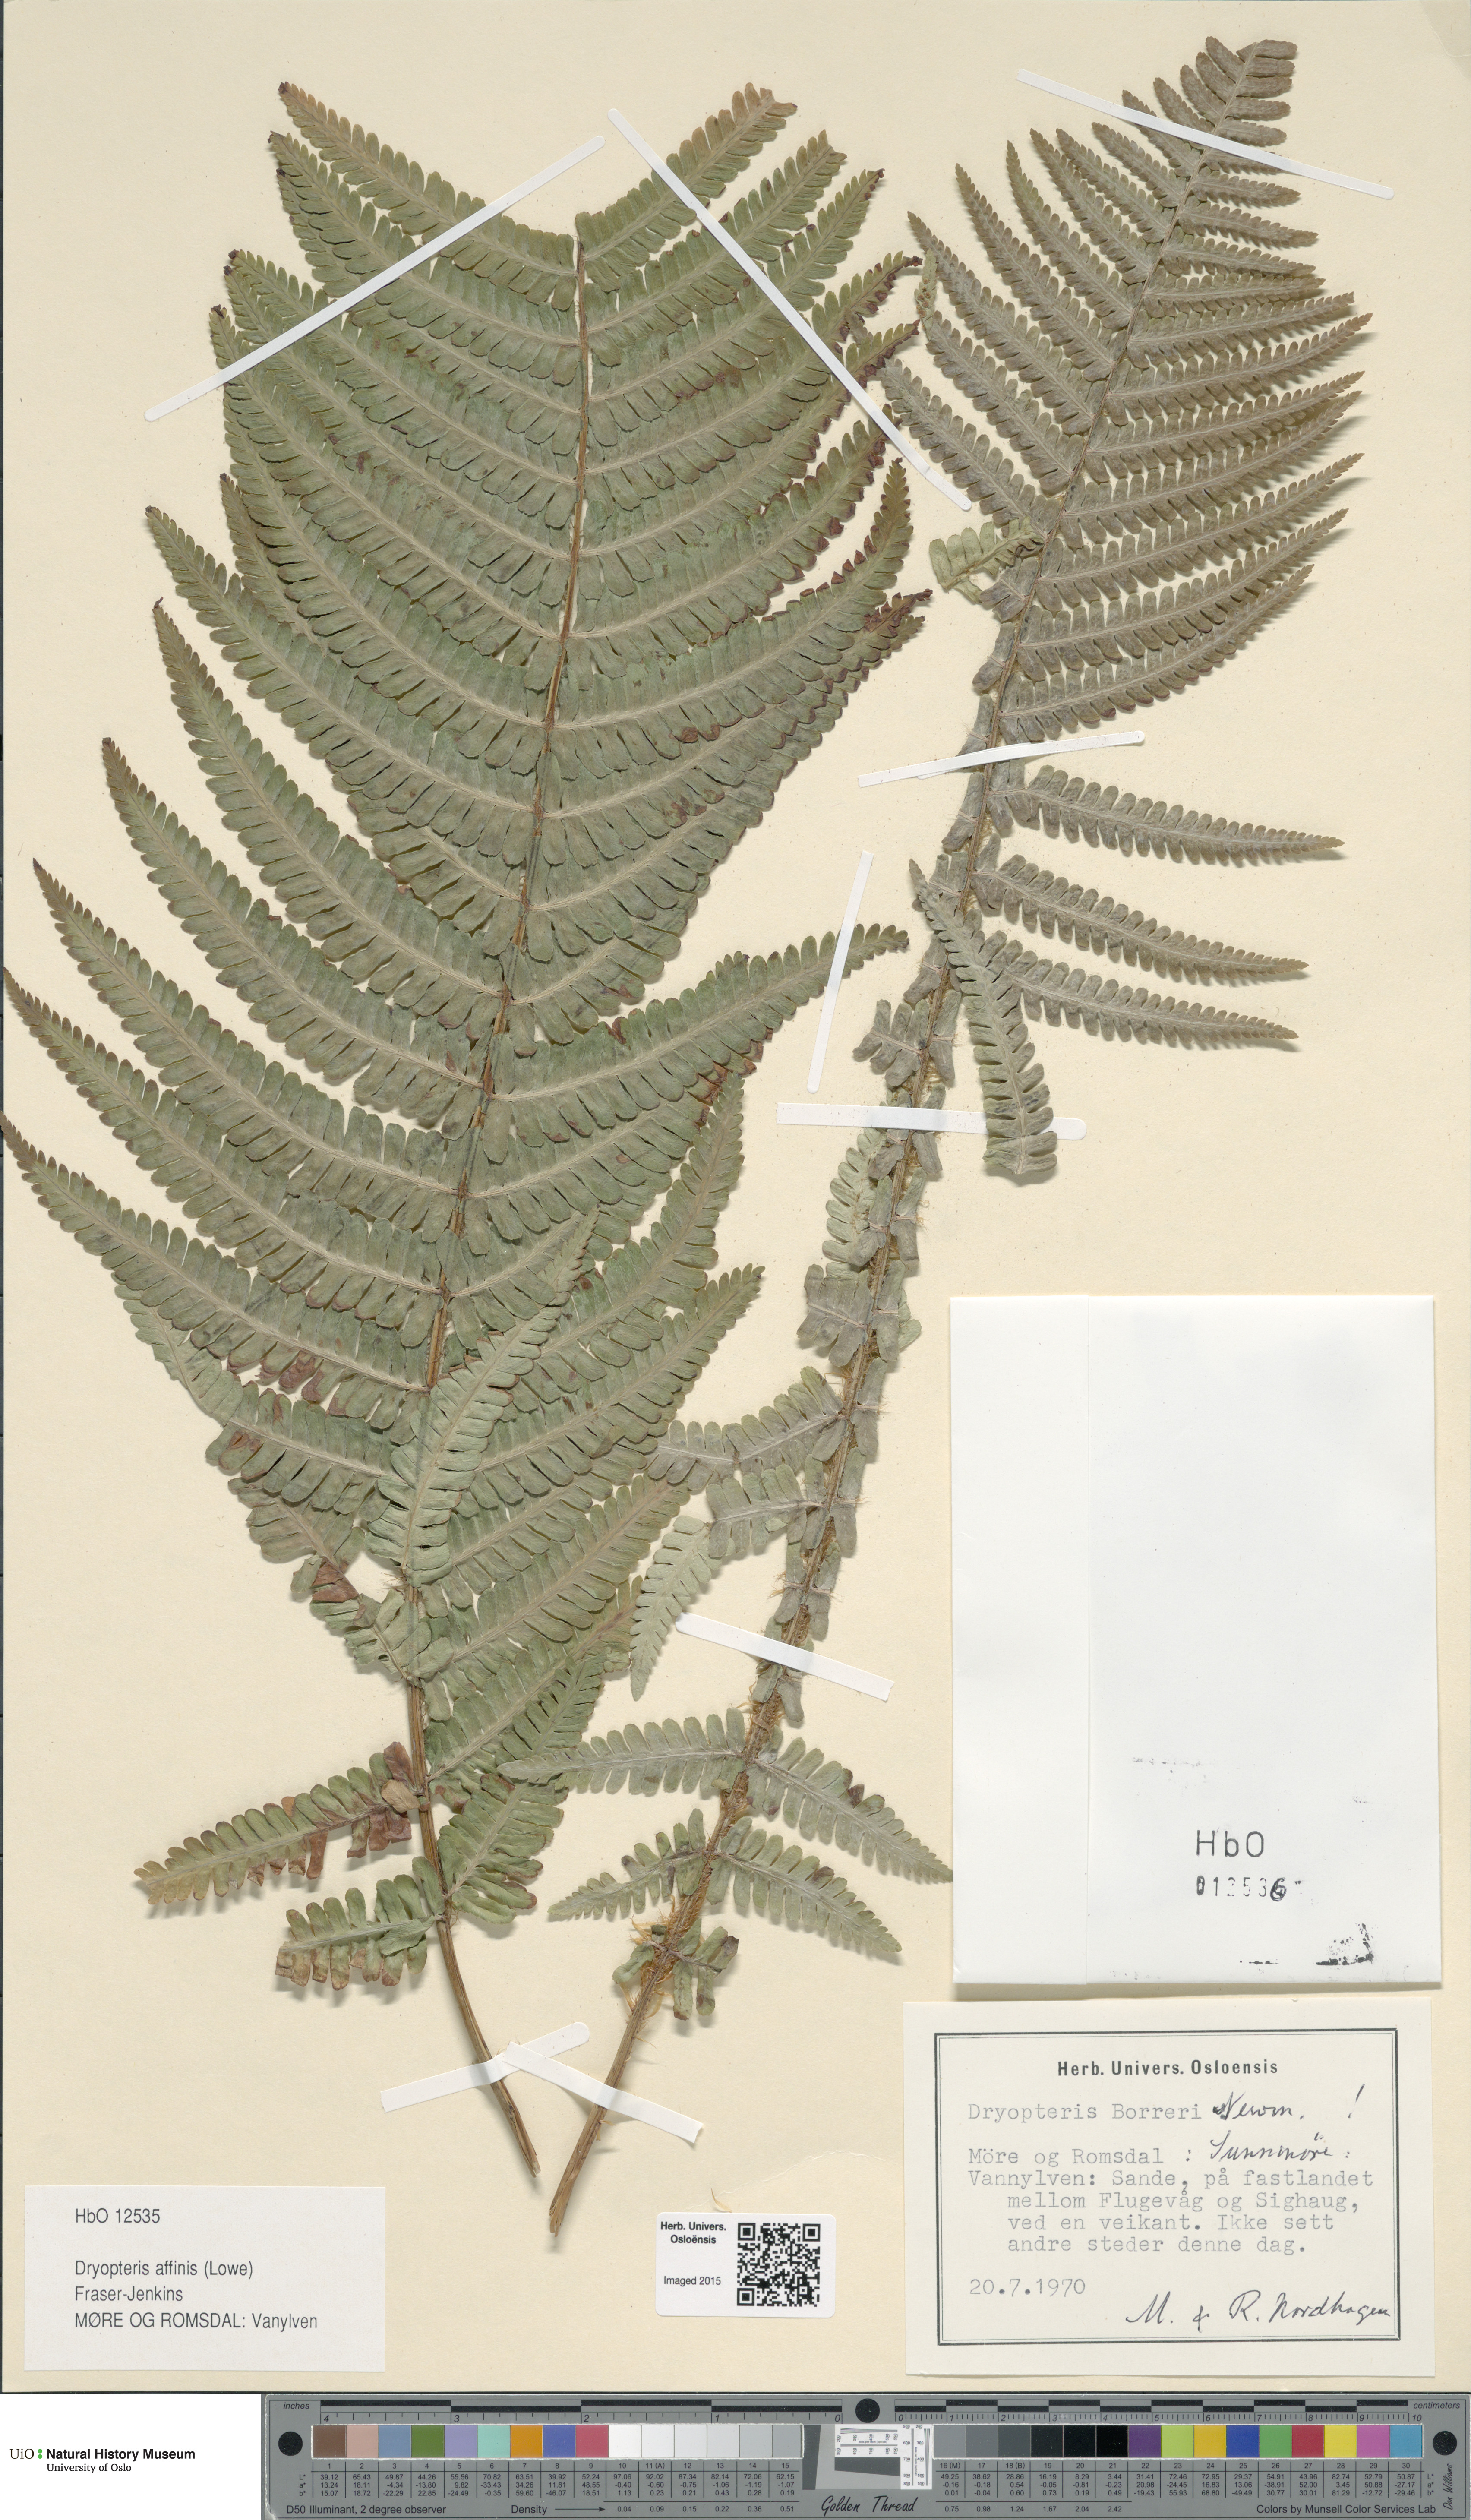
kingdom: Plantae
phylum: Tracheophyta
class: Polypodiopsida
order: Polypodiales
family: Dryopteridaceae
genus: Dryopteris
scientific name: Dryopteris borreri
